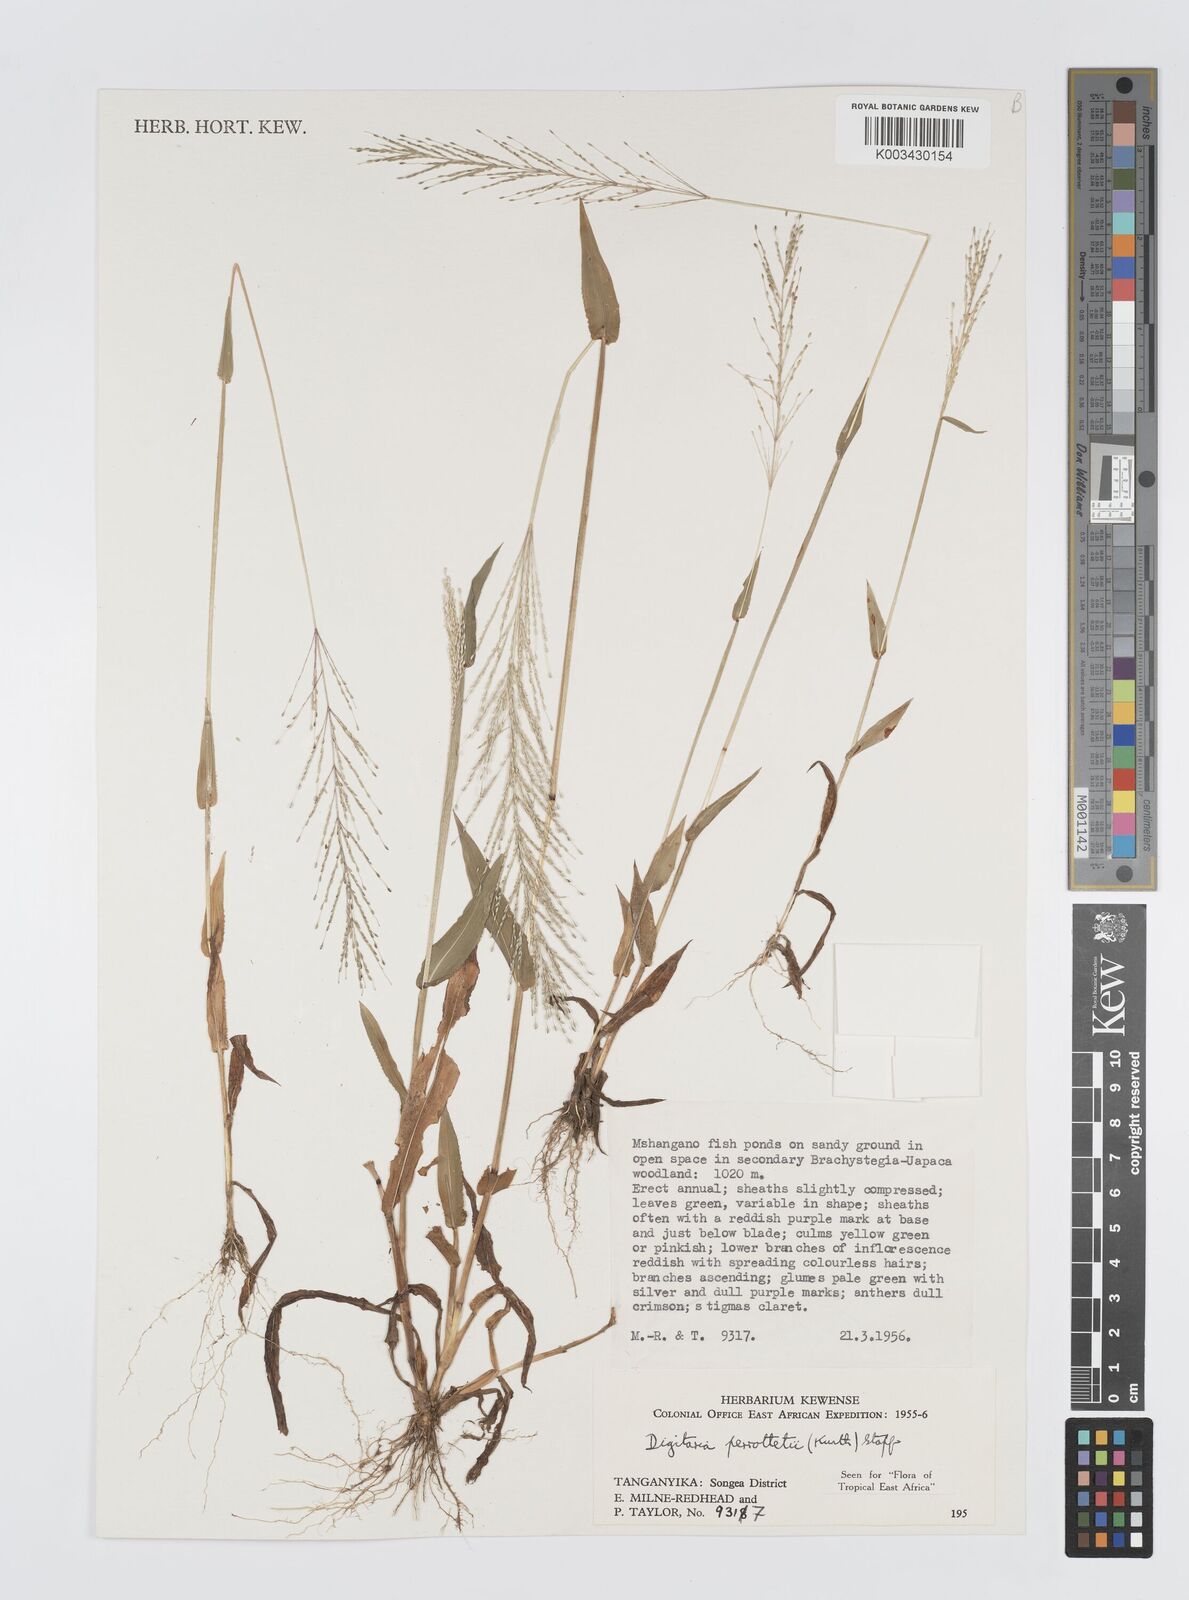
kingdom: Plantae
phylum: Tracheophyta
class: Liliopsida
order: Poales
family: Poaceae
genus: Digitaria
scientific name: Digitaria perrottetii
